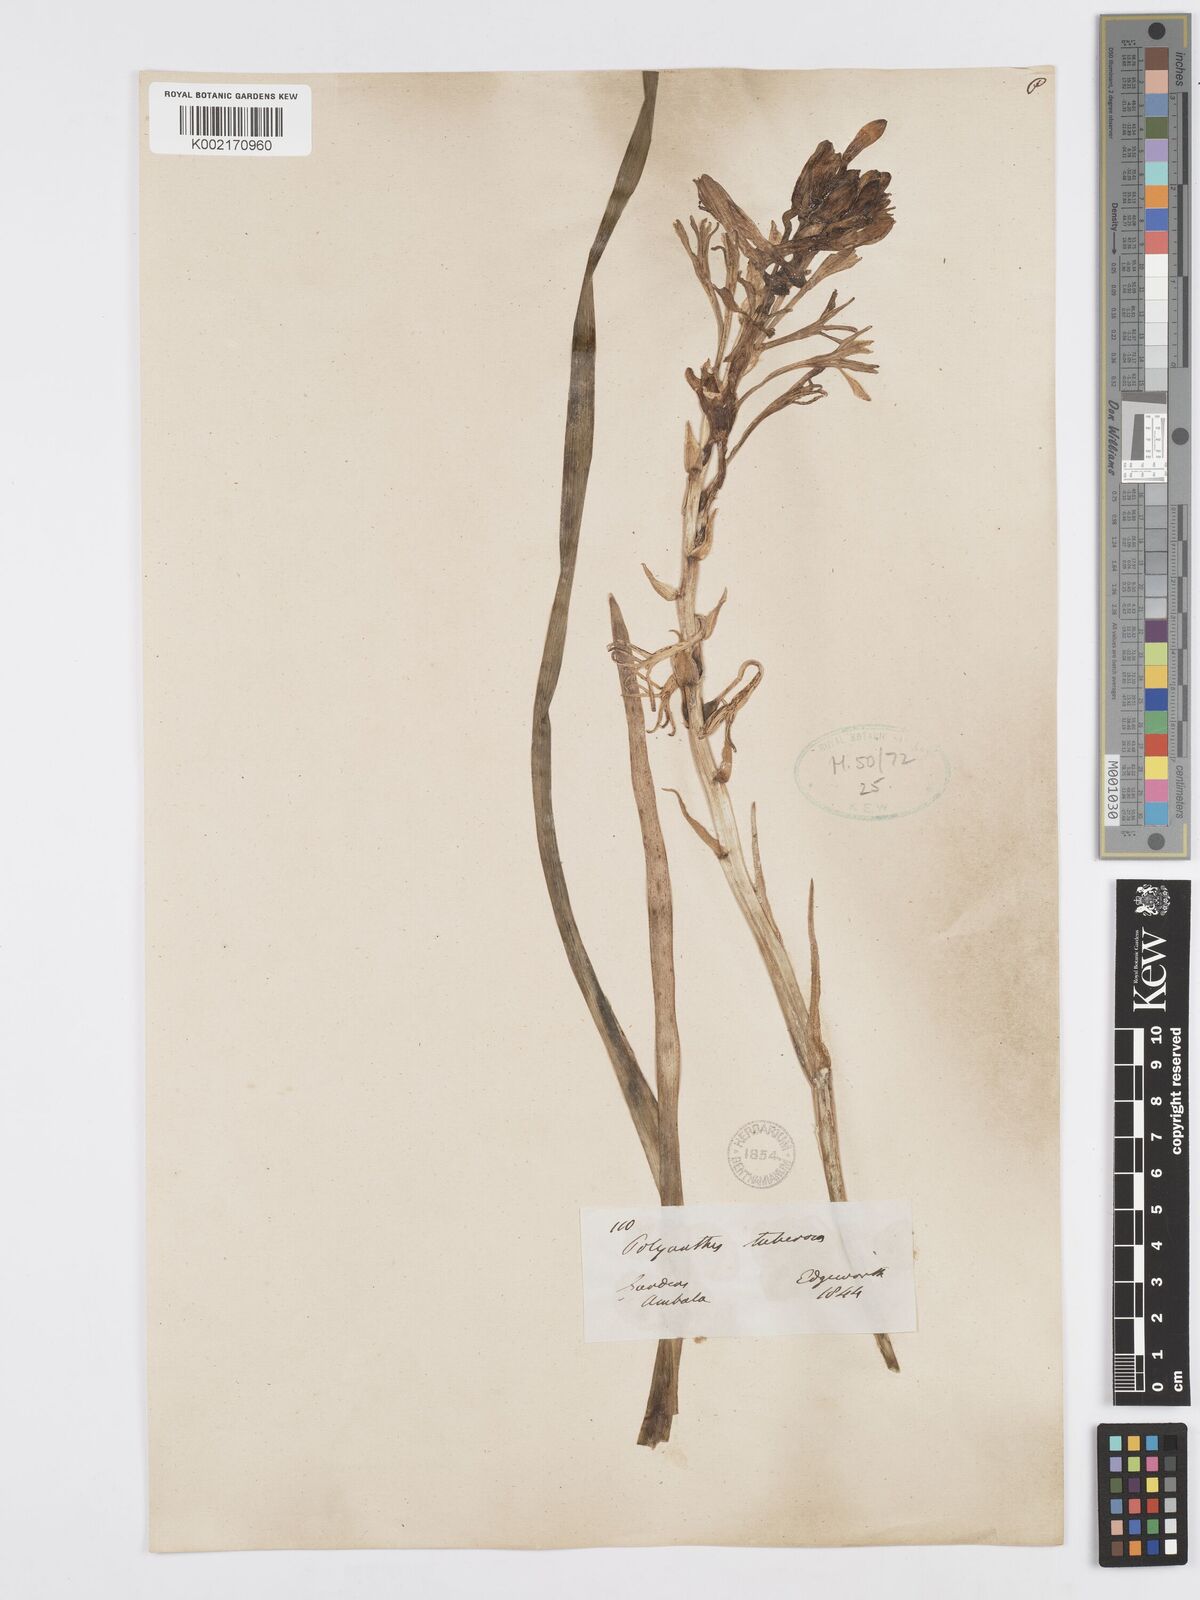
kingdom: Plantae
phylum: Tracheophyta
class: Liliopsida
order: Asparagales
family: Asparagaceae
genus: Agave
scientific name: Agave amica
